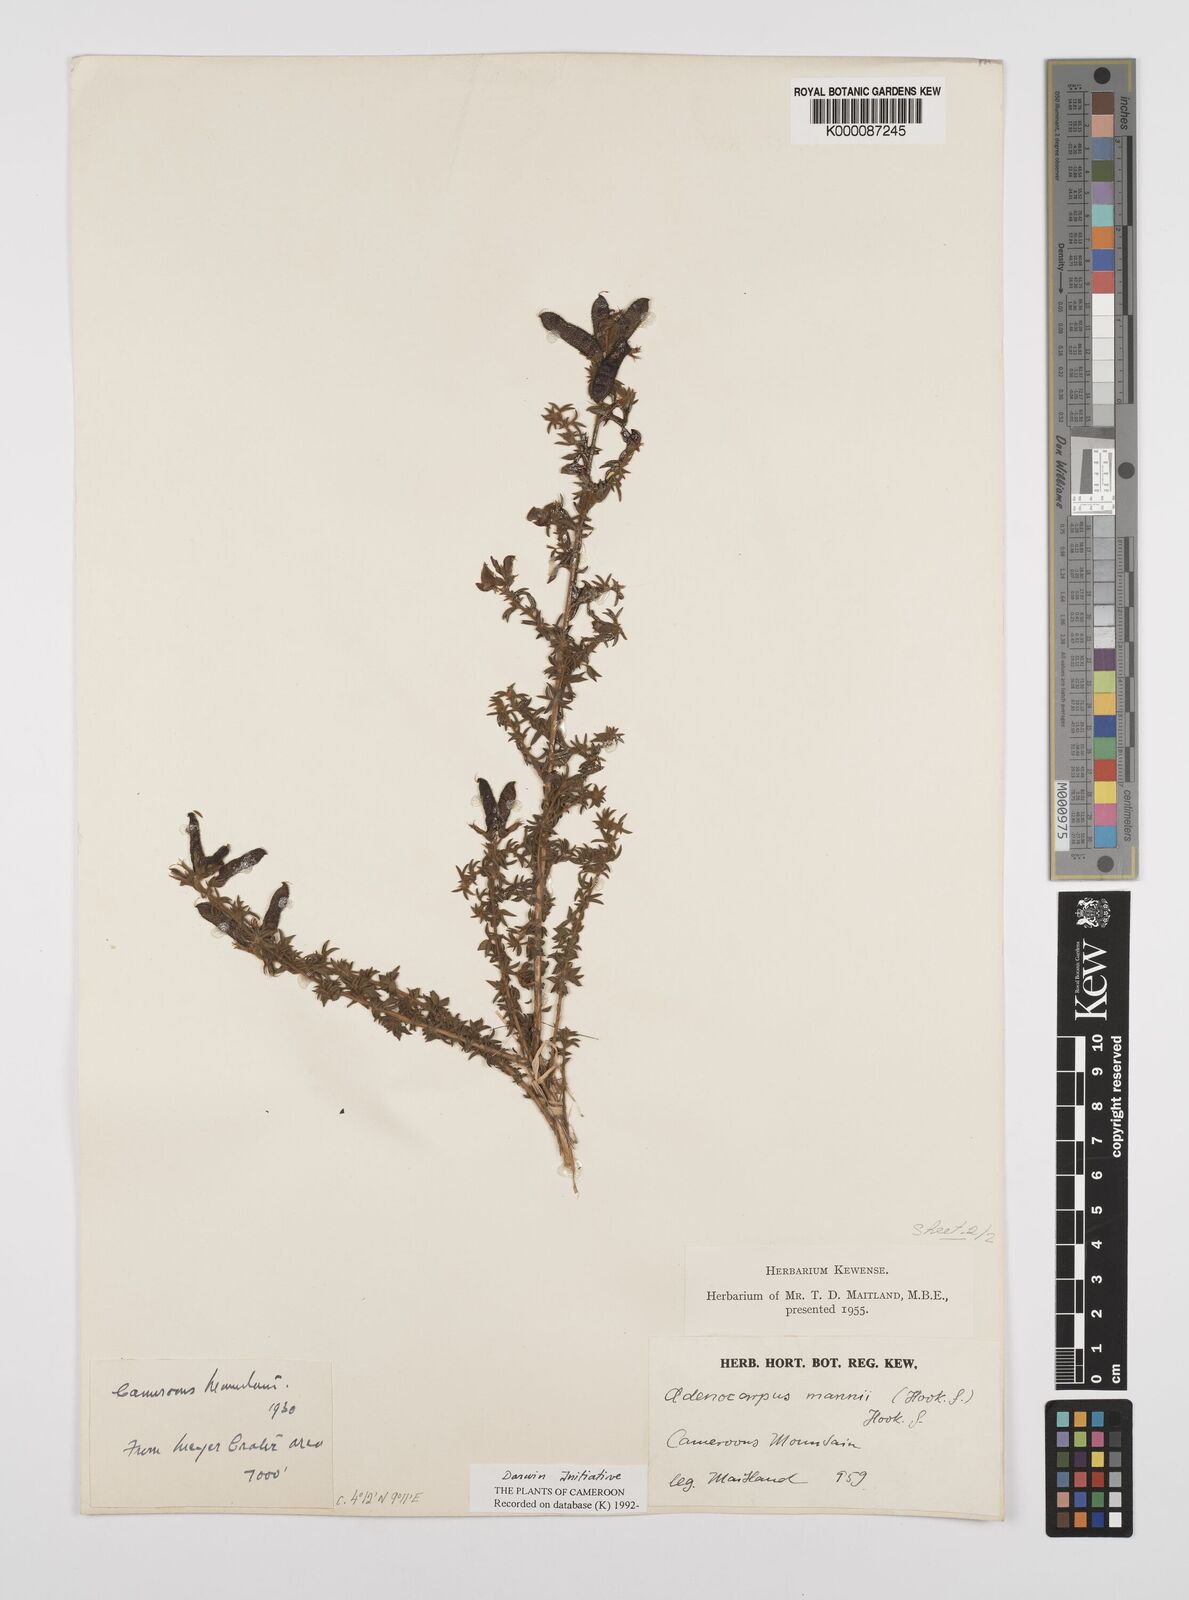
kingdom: Plantae
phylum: Tracheophyta
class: Magnoliopsida
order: Fabales
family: Fabaceae
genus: Adenocarpus
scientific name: Adenocarpus mannii
